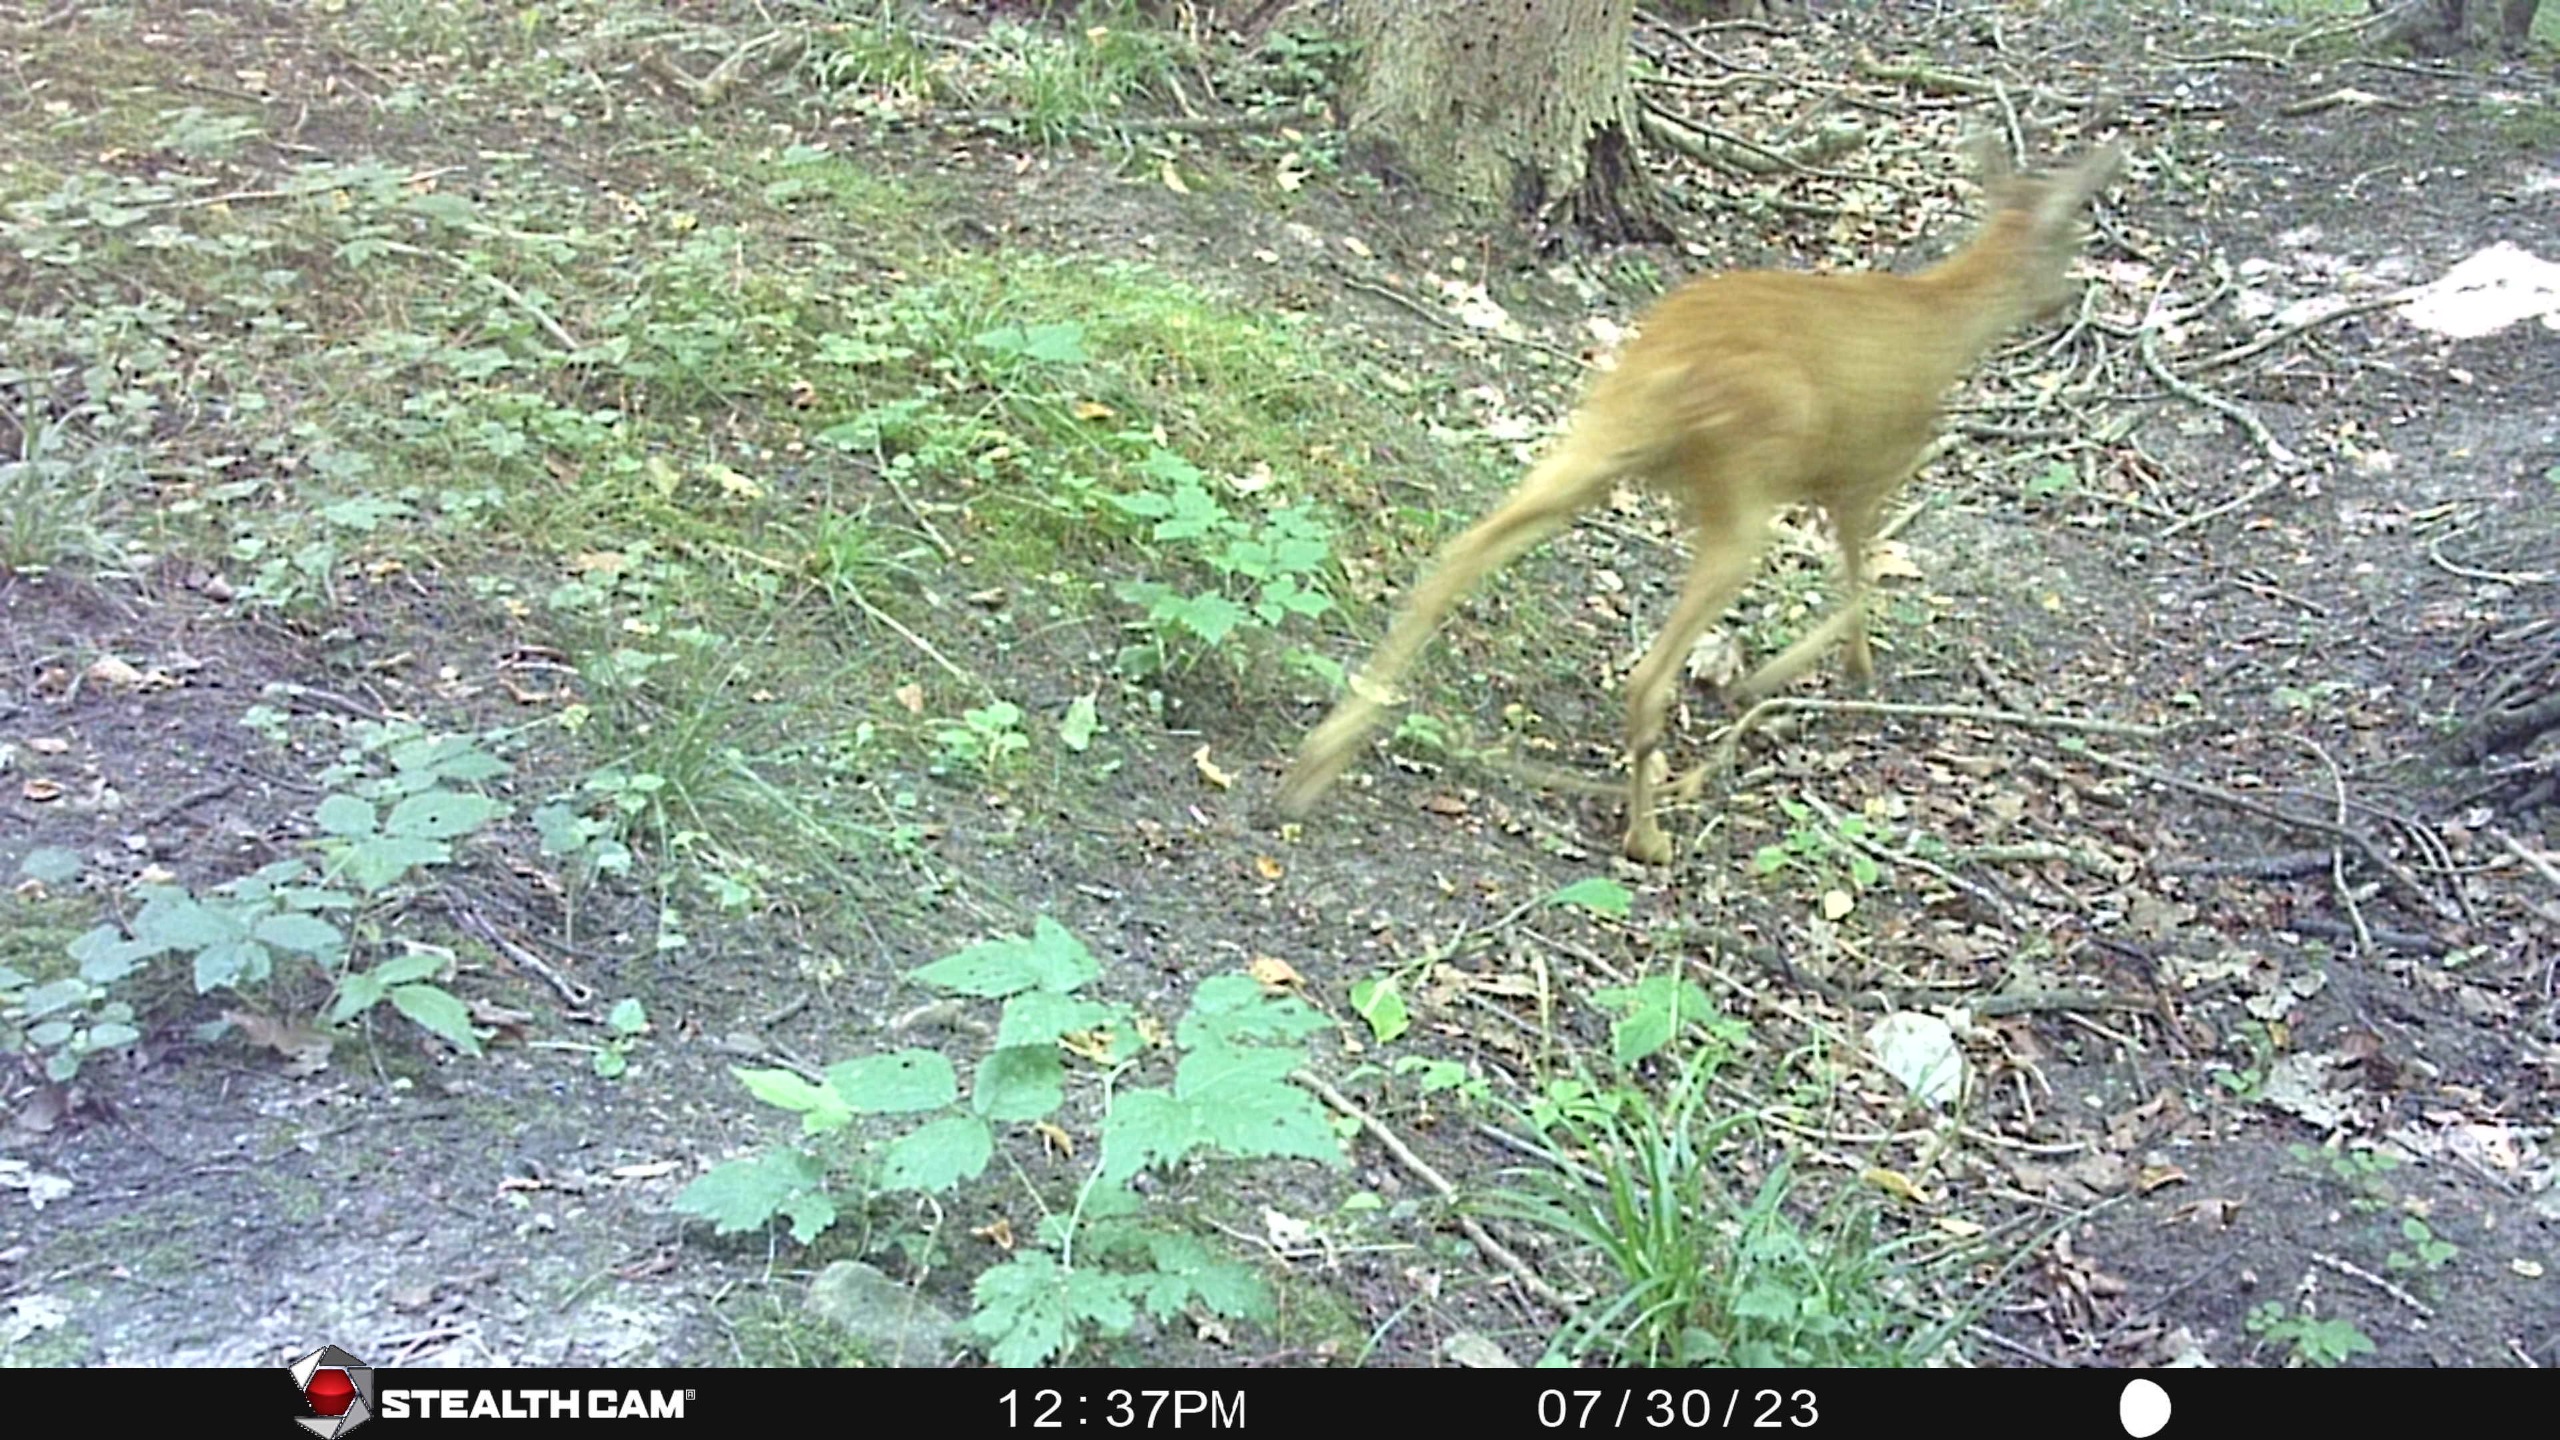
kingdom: Animalia
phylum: Chordata
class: Mammalia
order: Artiodactyla
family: Cervidae
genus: Capreolus
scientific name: Capreolus capreolus
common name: Rådyr
